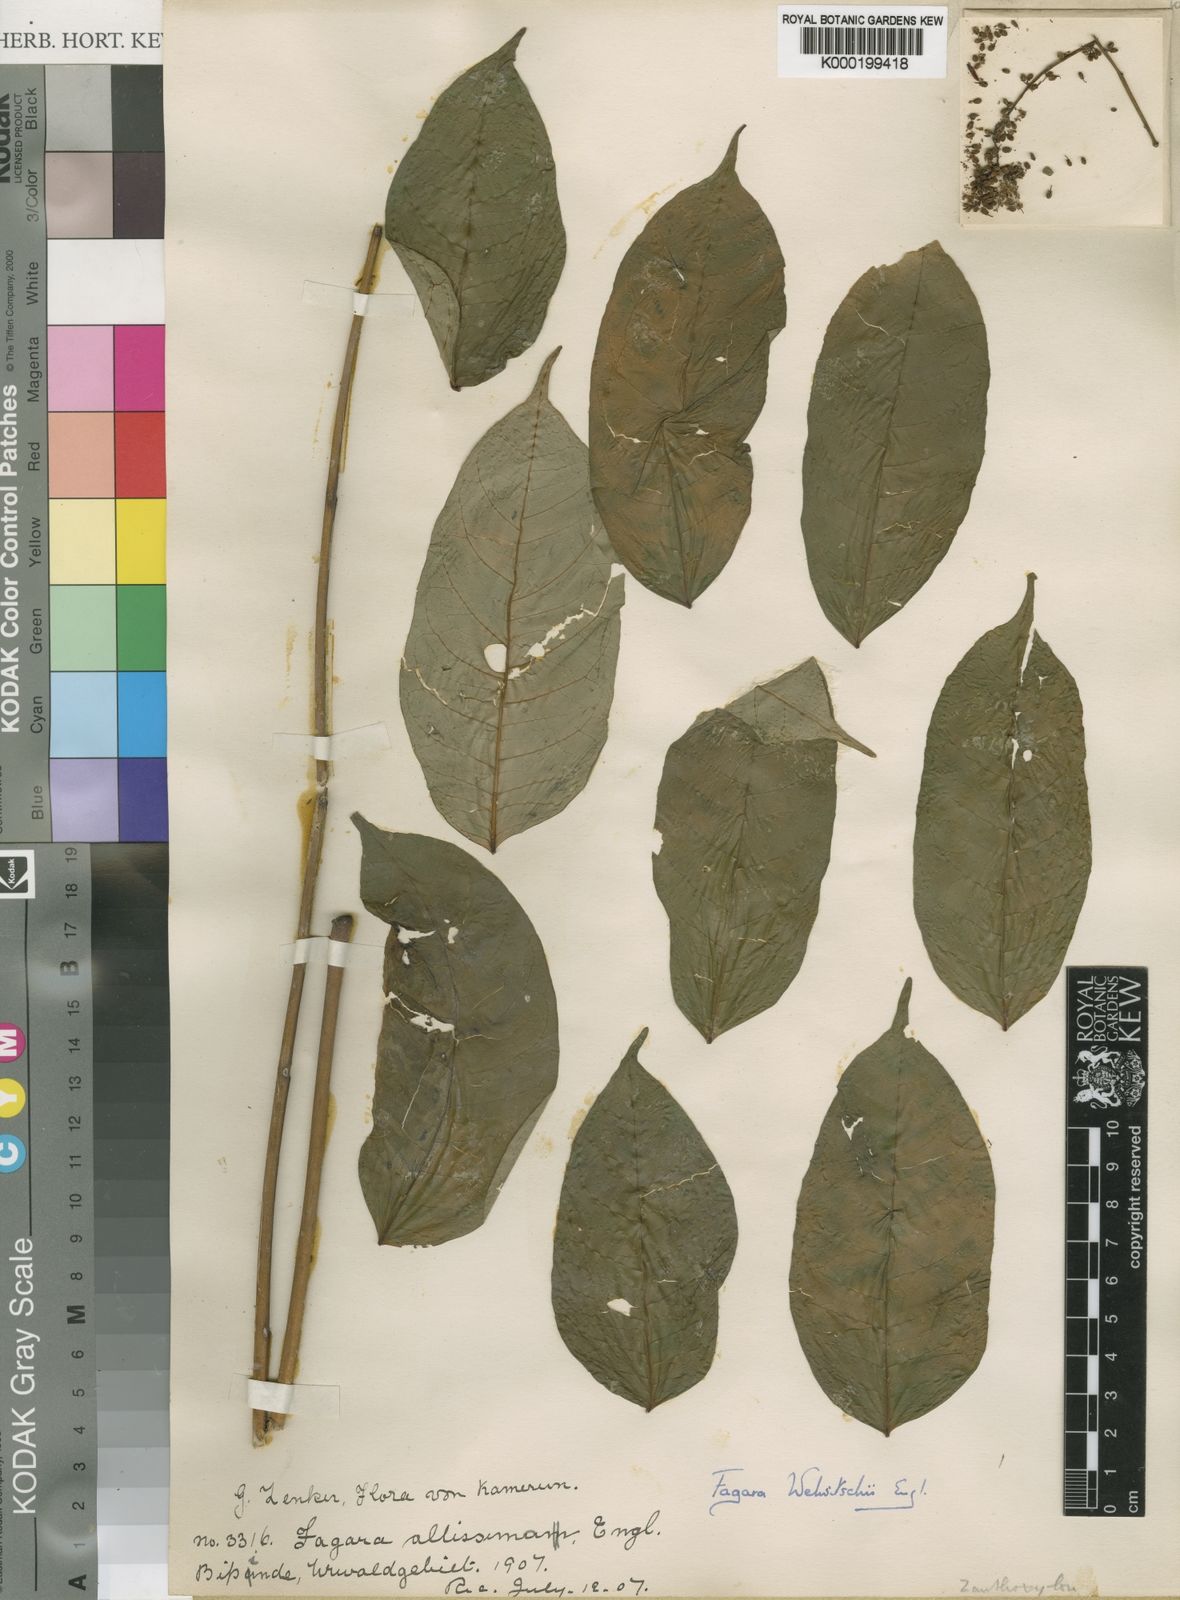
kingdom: Plantae
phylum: Tracheophyta
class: Magnoliopsida
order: Sapindales
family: Rutaceae
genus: Vepris
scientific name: Vepris grandifolia
